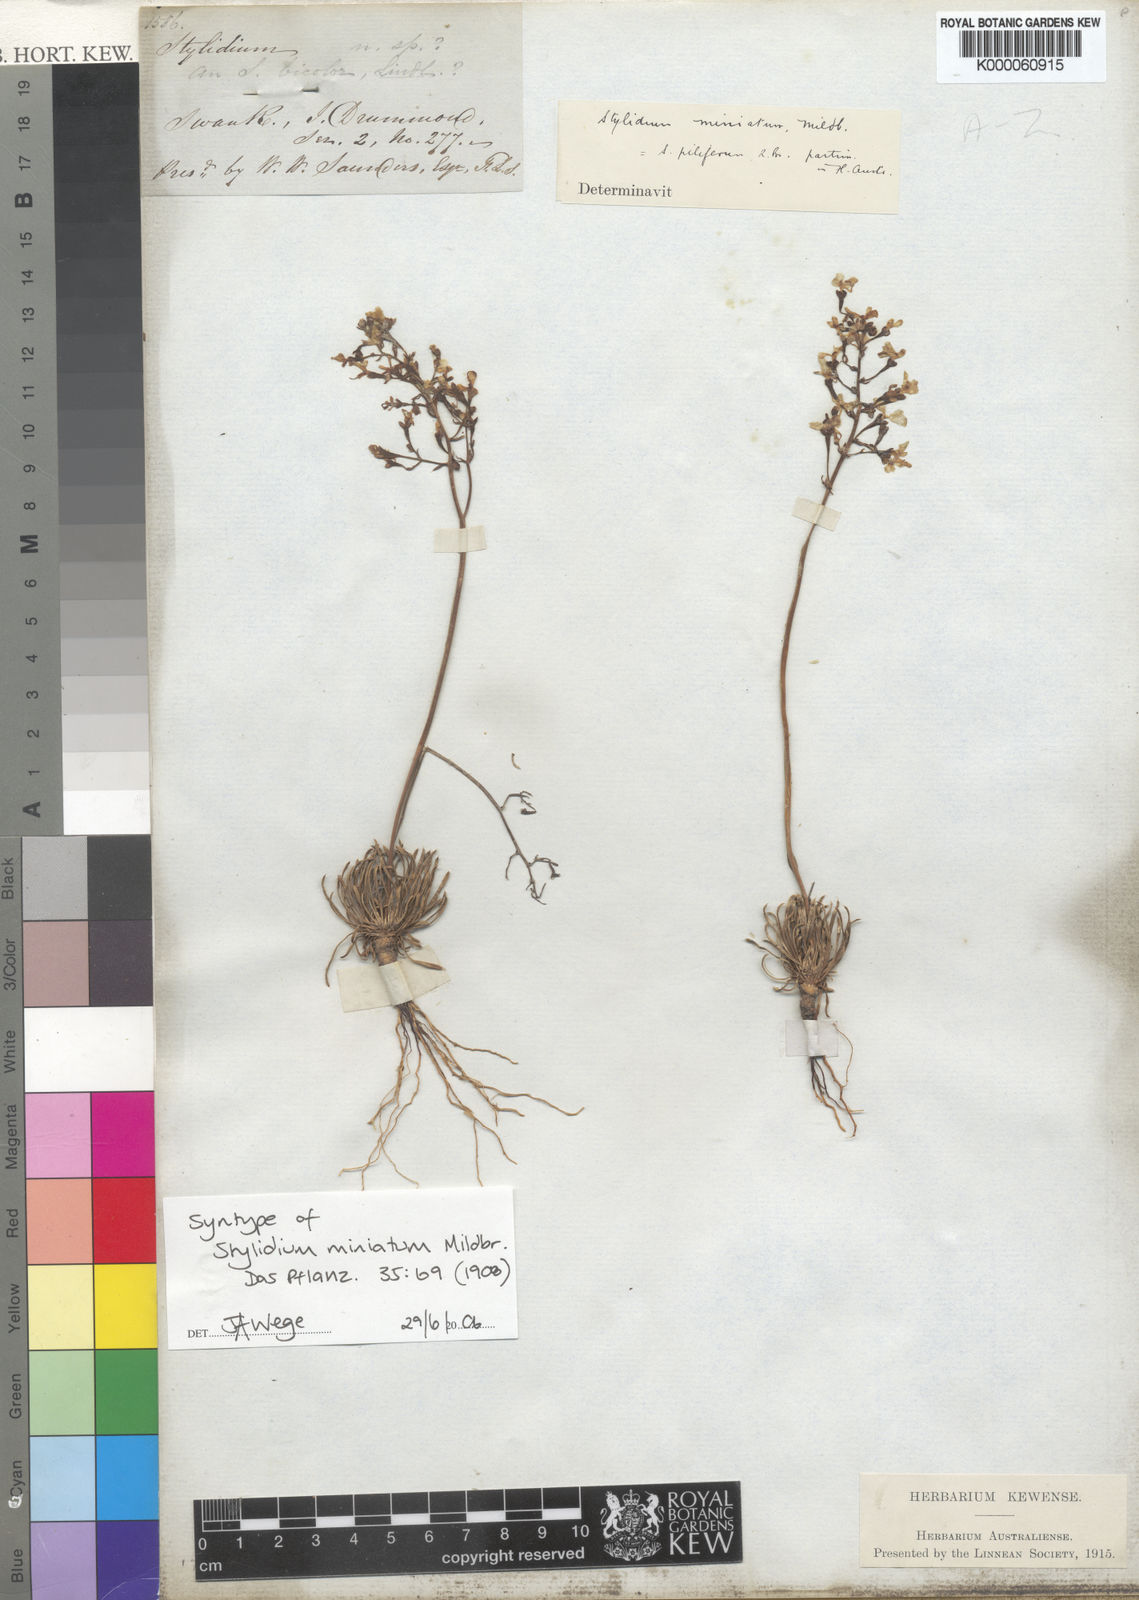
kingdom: Plantae
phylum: Tracheophyta
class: Magnoliopsida
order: Asterales
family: Stylidiaceae
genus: Stylidium
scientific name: Stylidium miniatum
